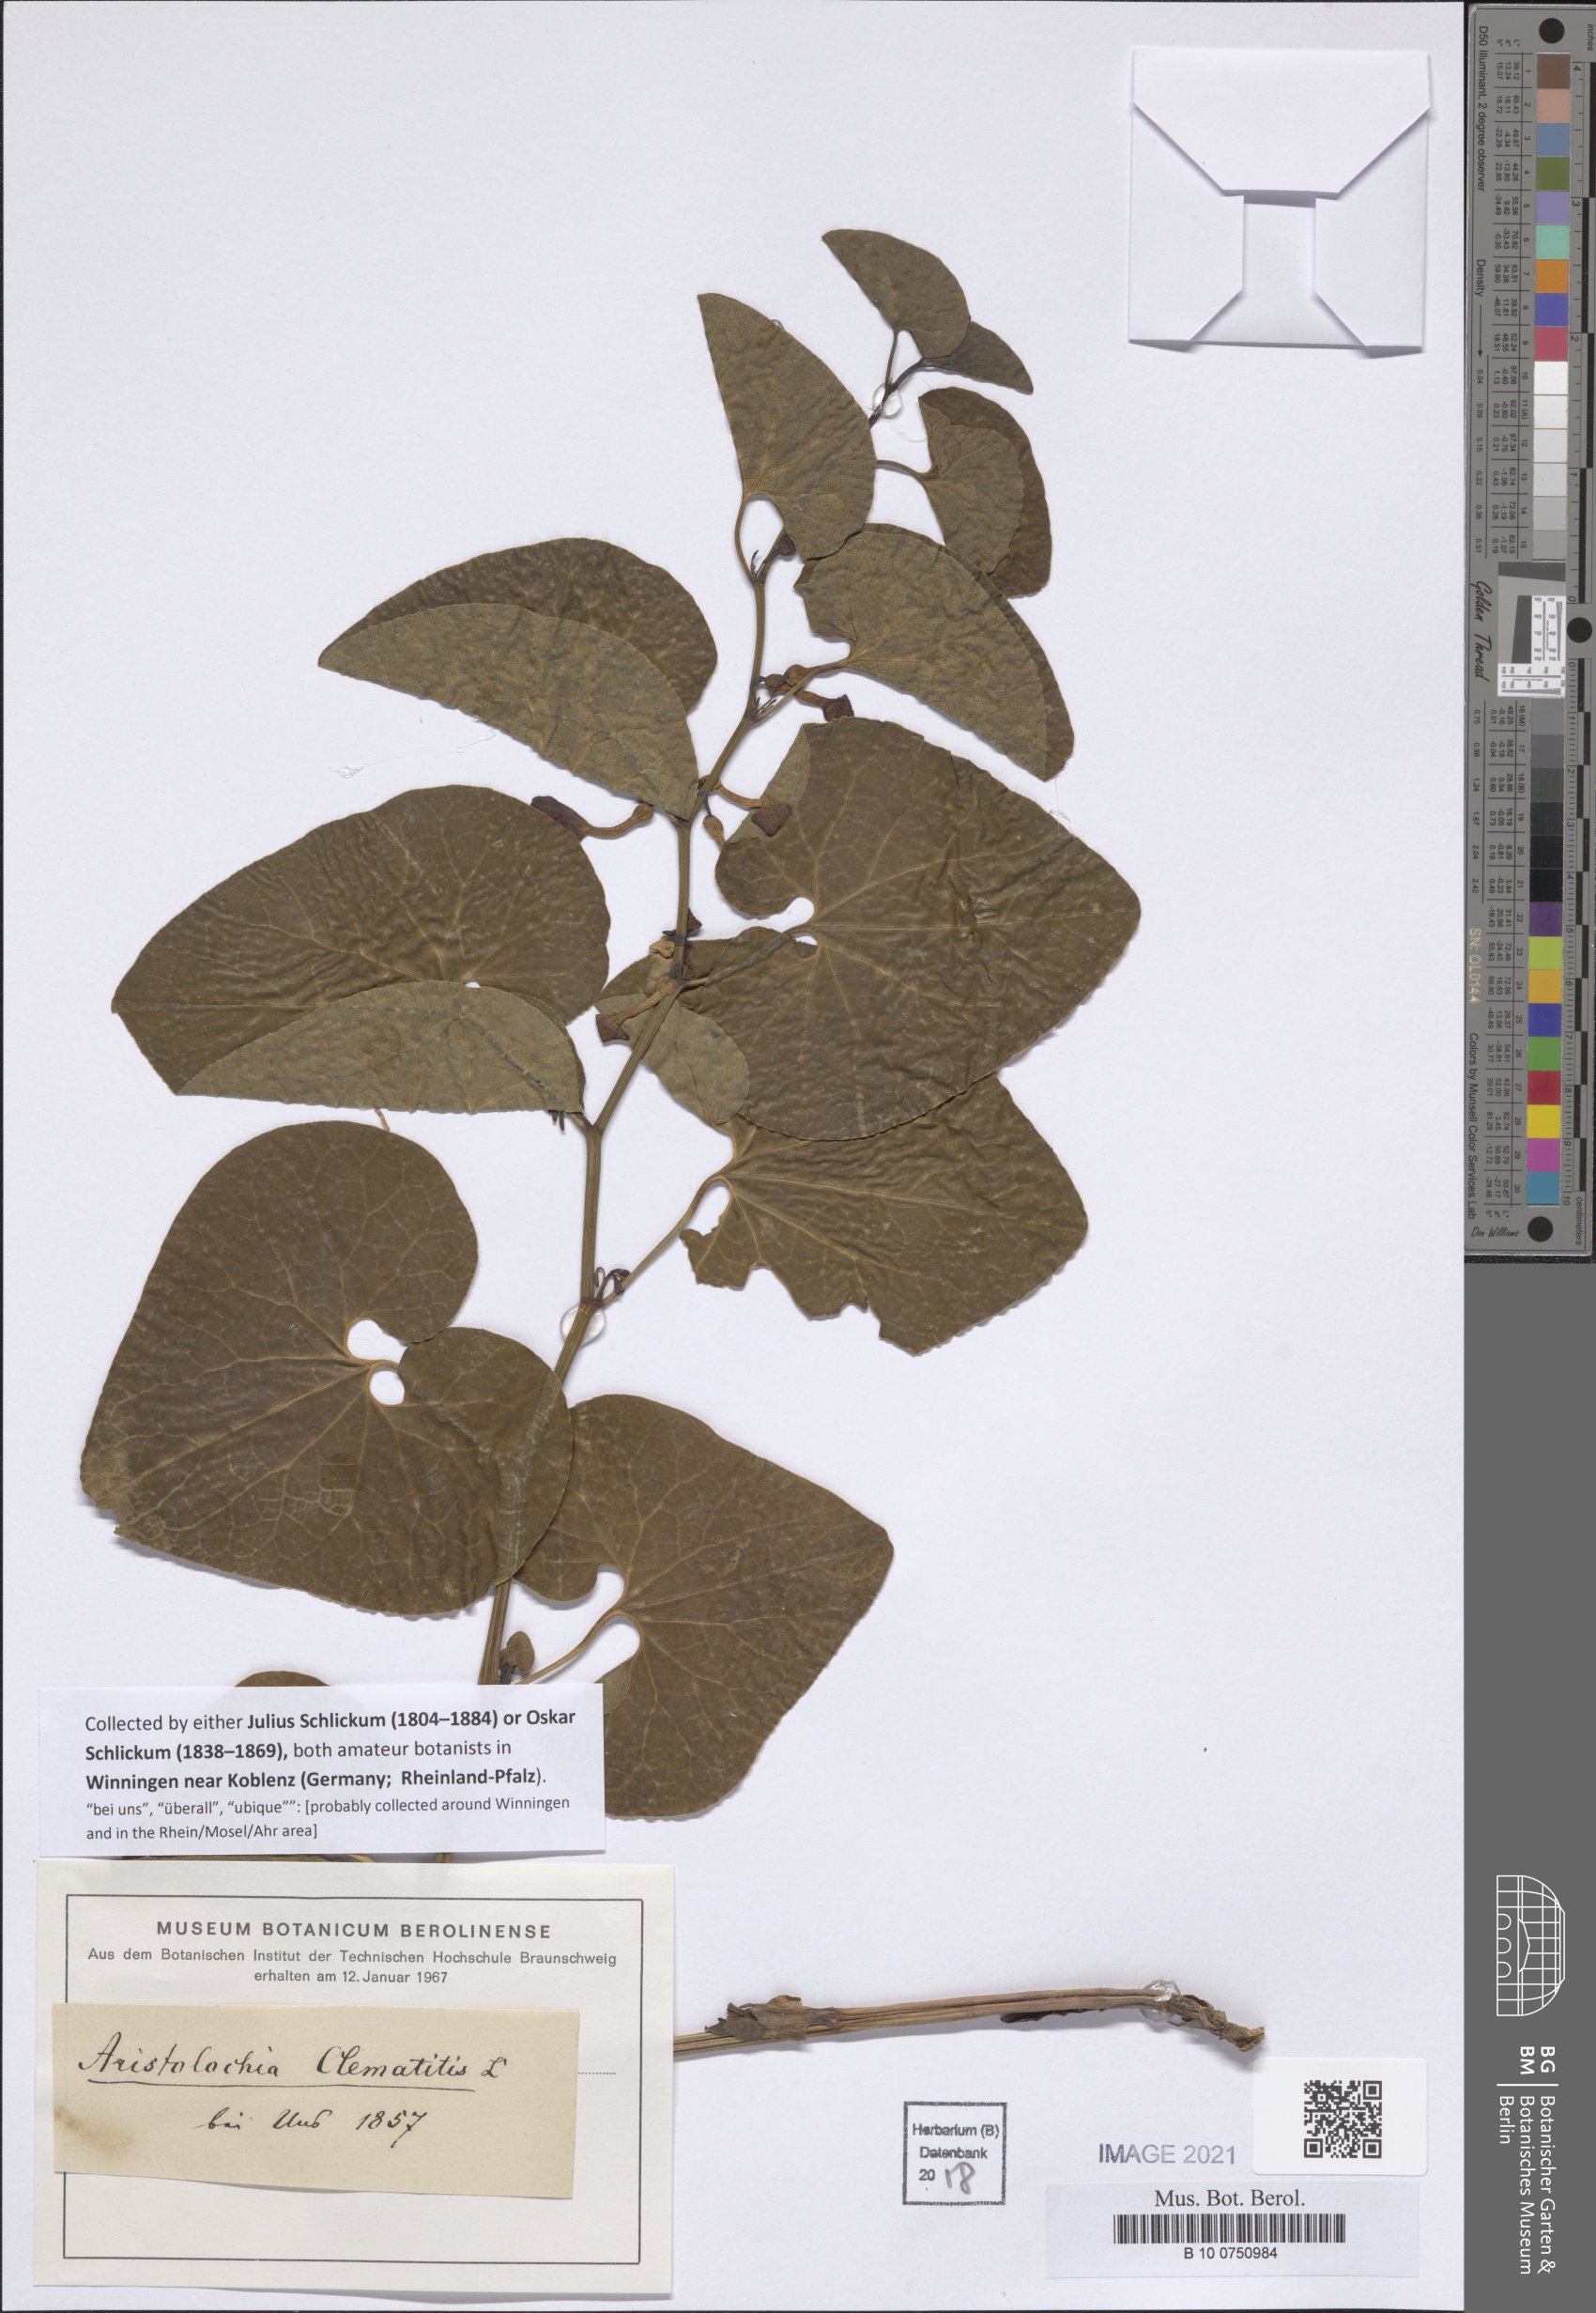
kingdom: Plantae
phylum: Tracheophyta
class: Magnoliopsida
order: Piperales
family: Aristolochiaceae
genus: Aristolochia
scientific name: Aristolochia clematitis
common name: Birthwort
